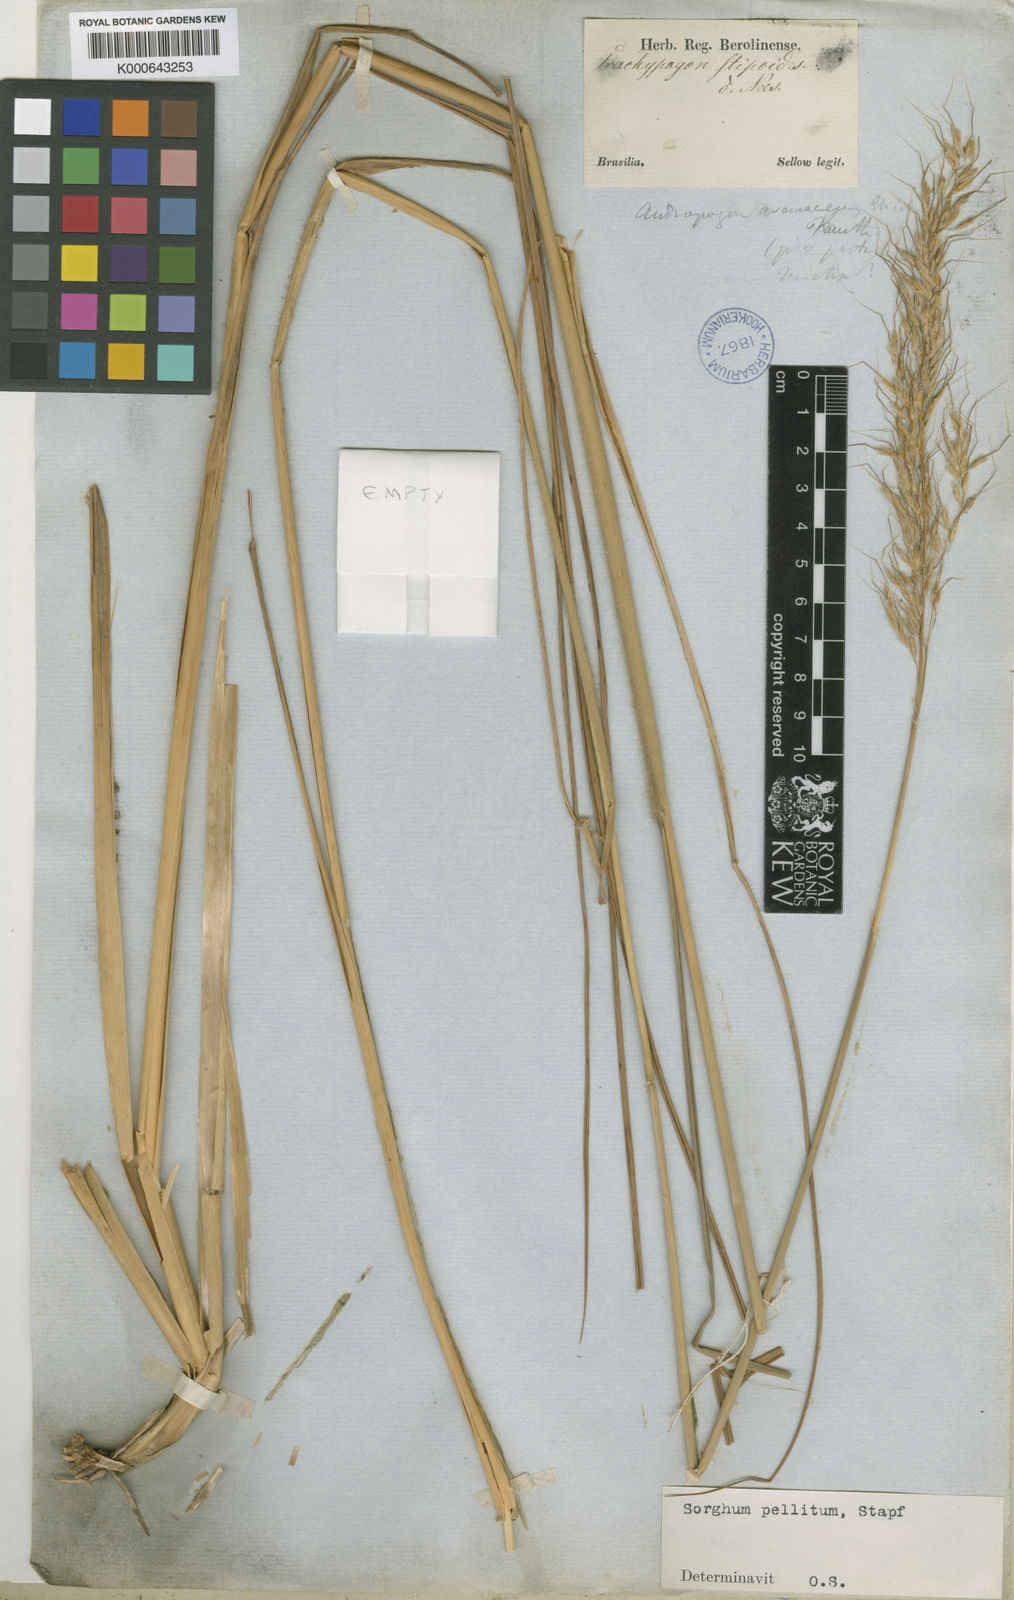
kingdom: Plantae
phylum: Tracheophyta
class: Liliopsida
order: Poales
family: Poaceae
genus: Axonopus
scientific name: Axonopus siccus
